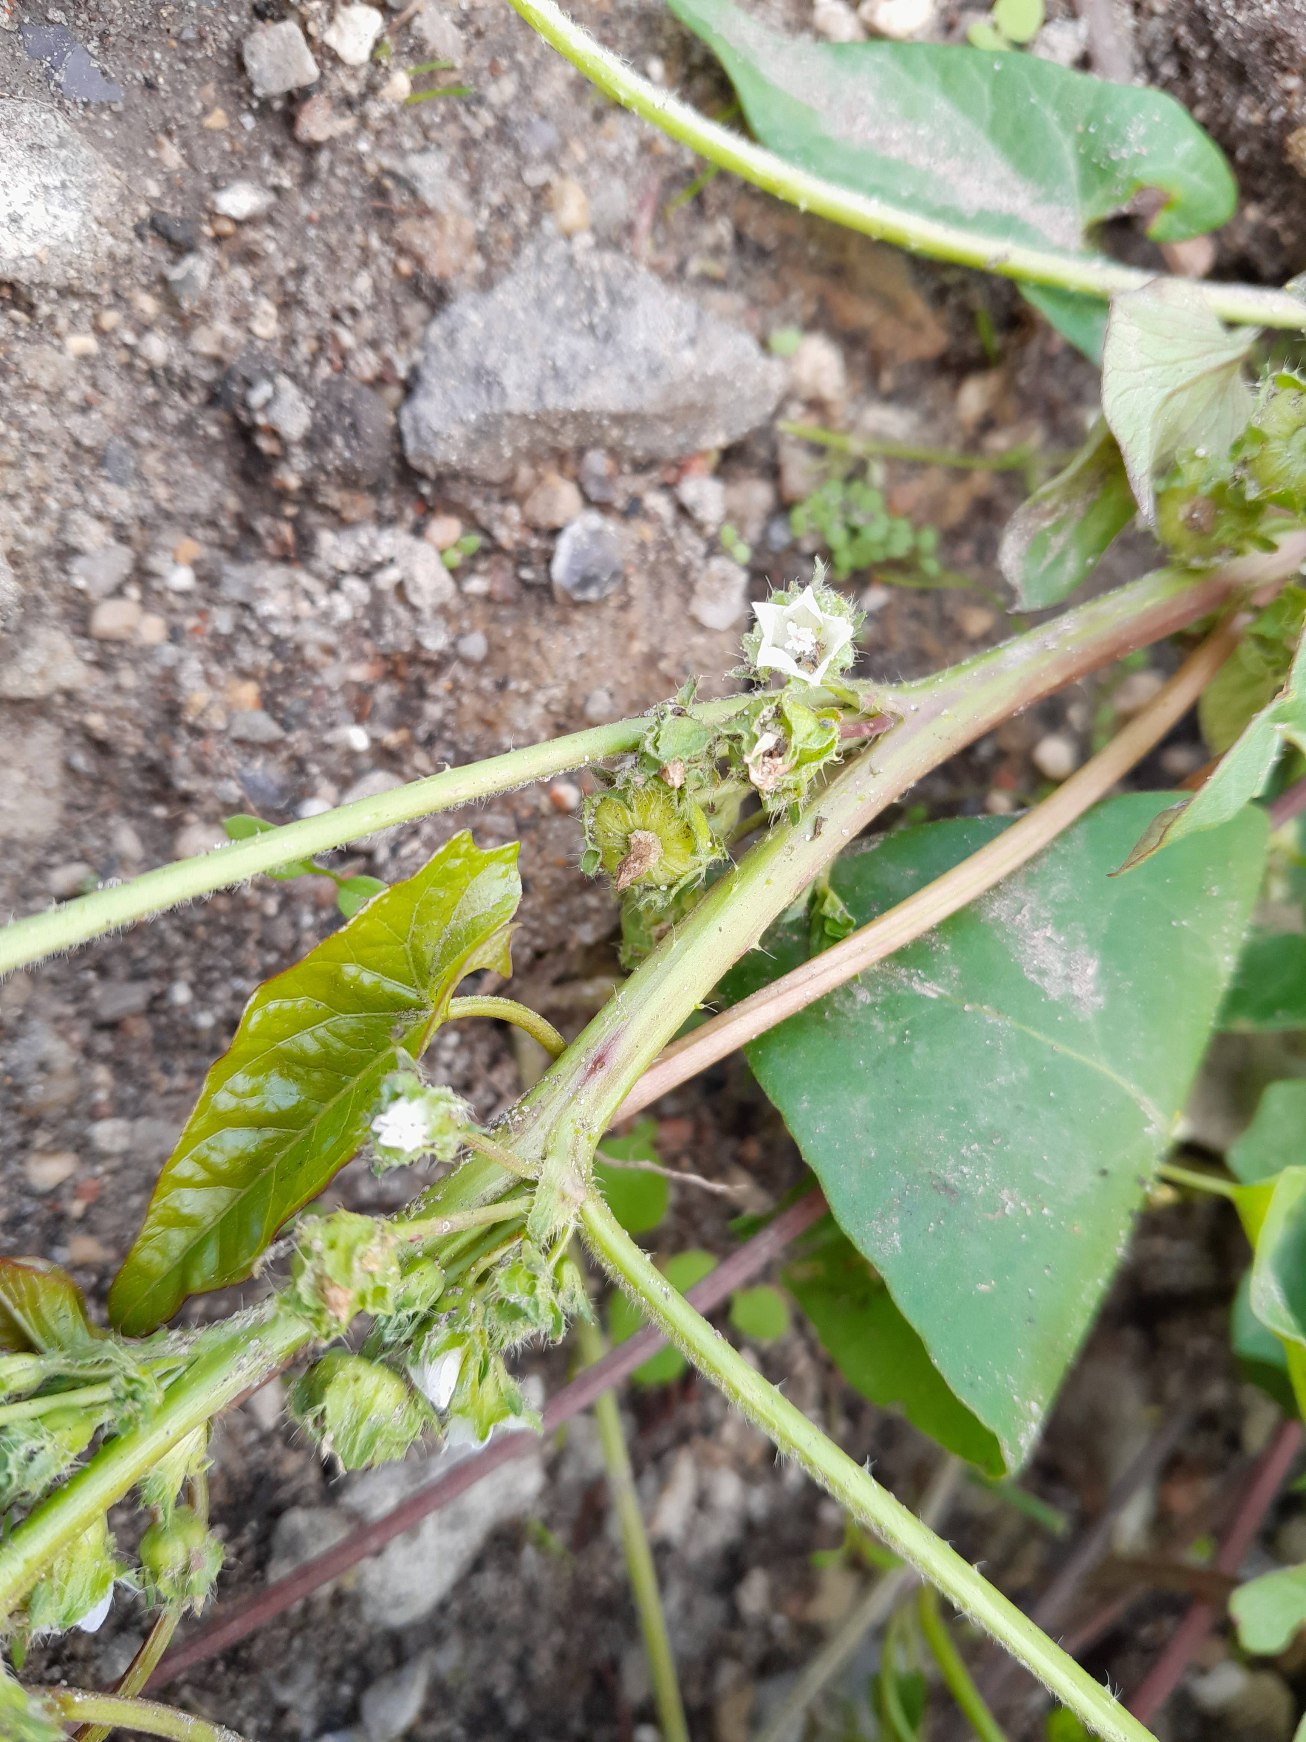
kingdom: Plantae
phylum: Tracheophyta
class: Magnoliopsida
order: Malvales
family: Malvaceae
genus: Malva
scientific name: Malva pusilla
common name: Liden katost
